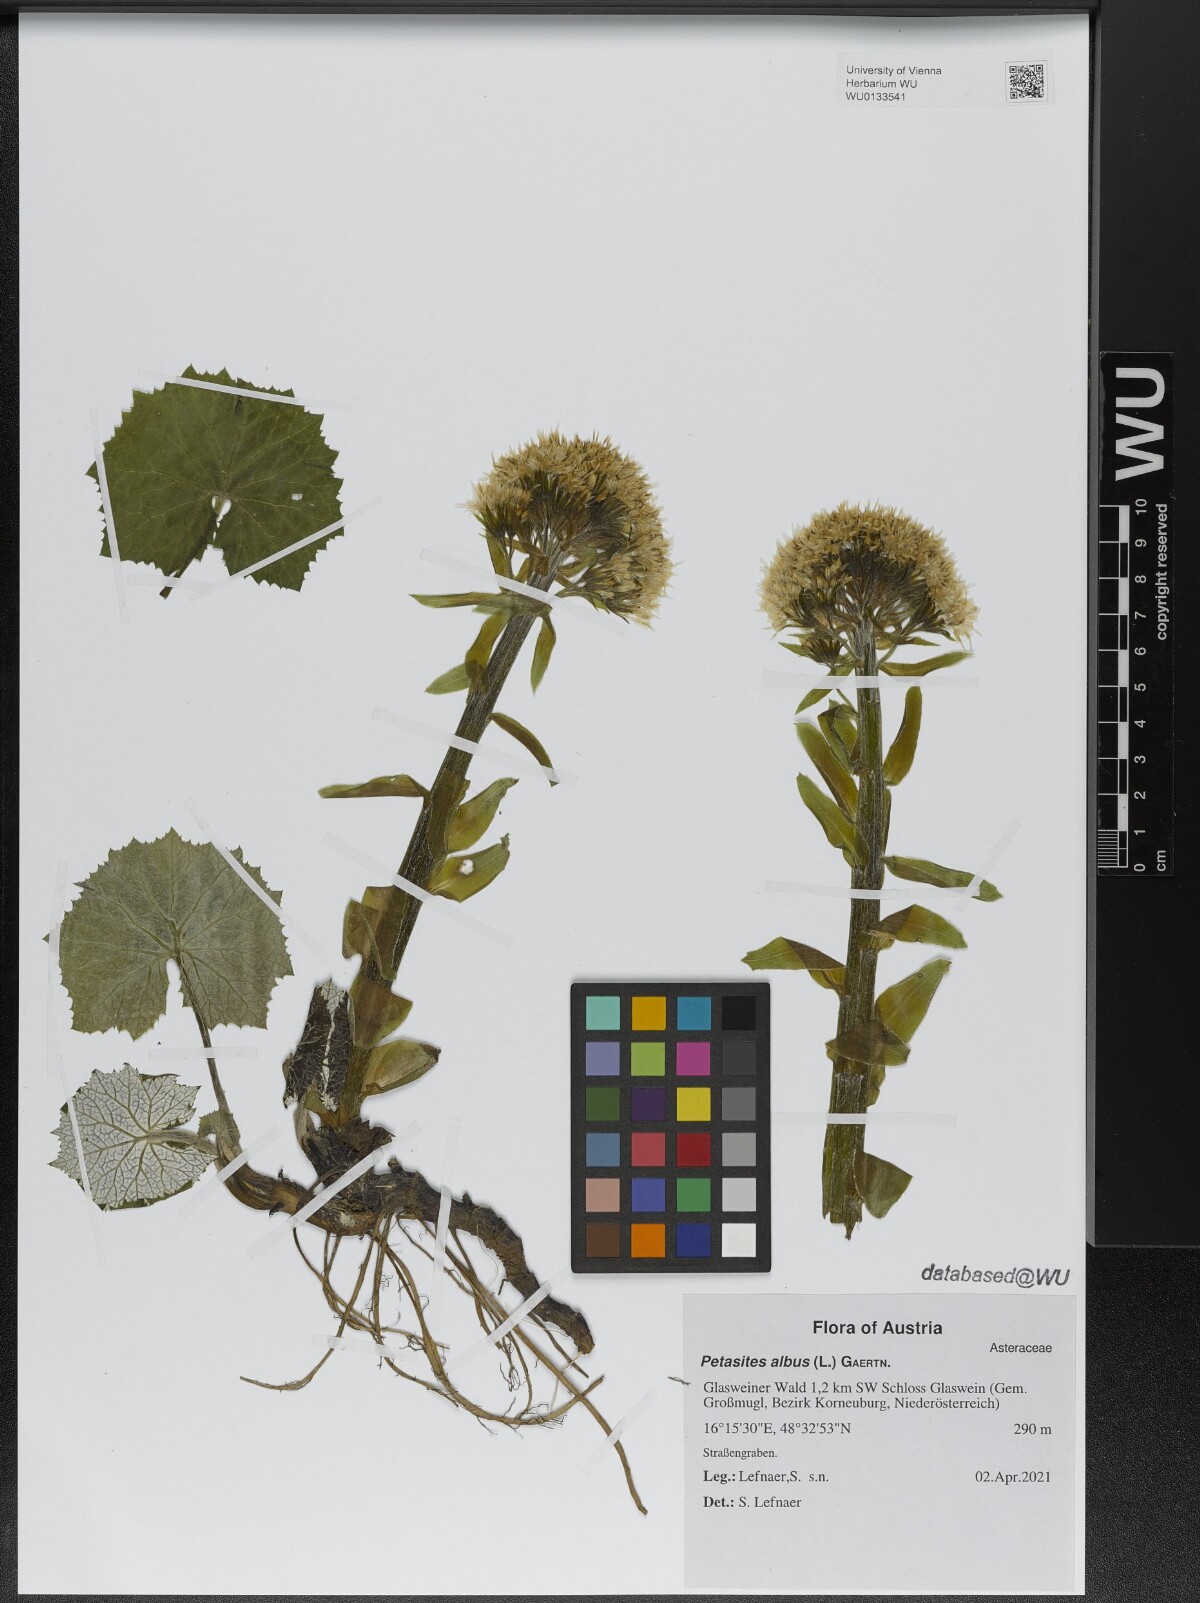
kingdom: Plantae
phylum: Tracheophyta
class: Magnoliopsida
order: Asterales
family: Asteraceae
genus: Petasites
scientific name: Petasites albus
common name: White butterbur
